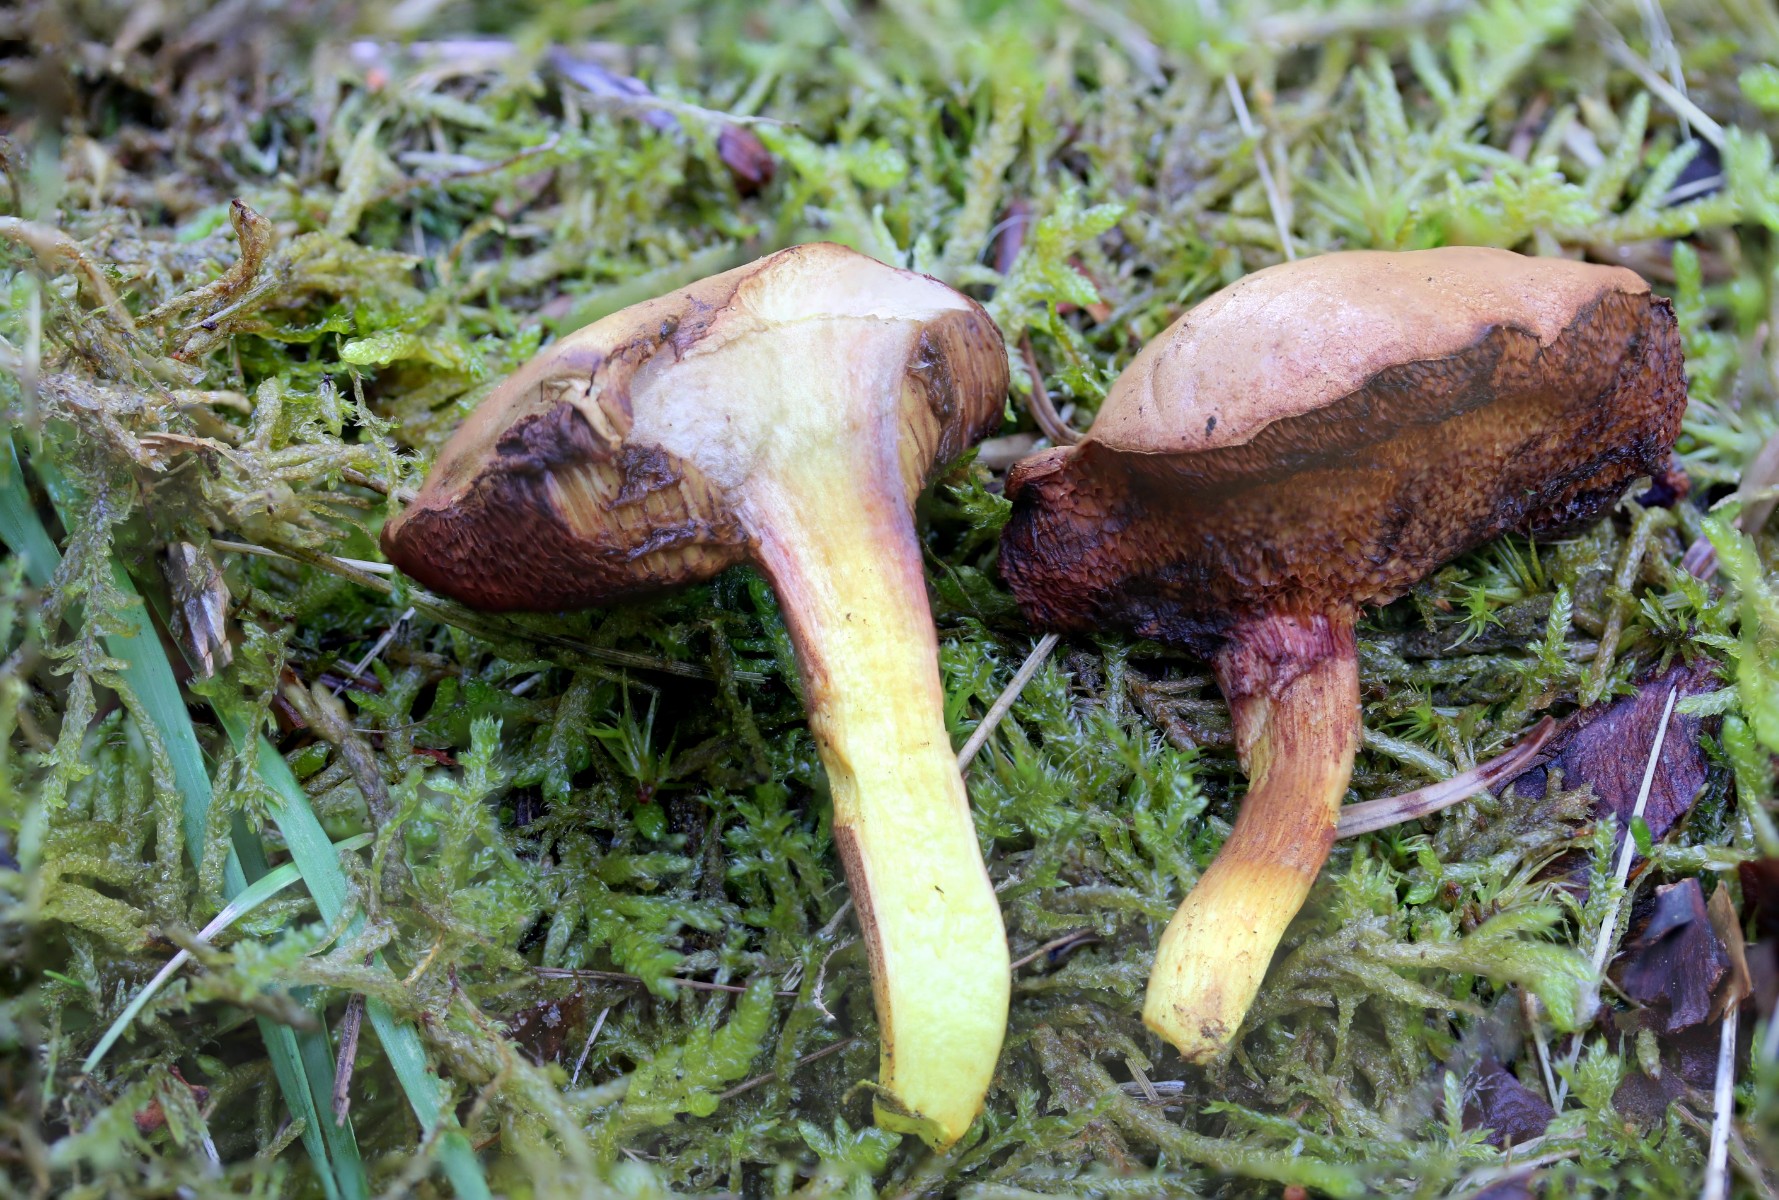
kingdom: Fungi
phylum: Basidiomycota
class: Agaricomycetes
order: Boletales
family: Boletaceae
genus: Chalciporus
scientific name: Chalciporus piperatus
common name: peberrørhat
